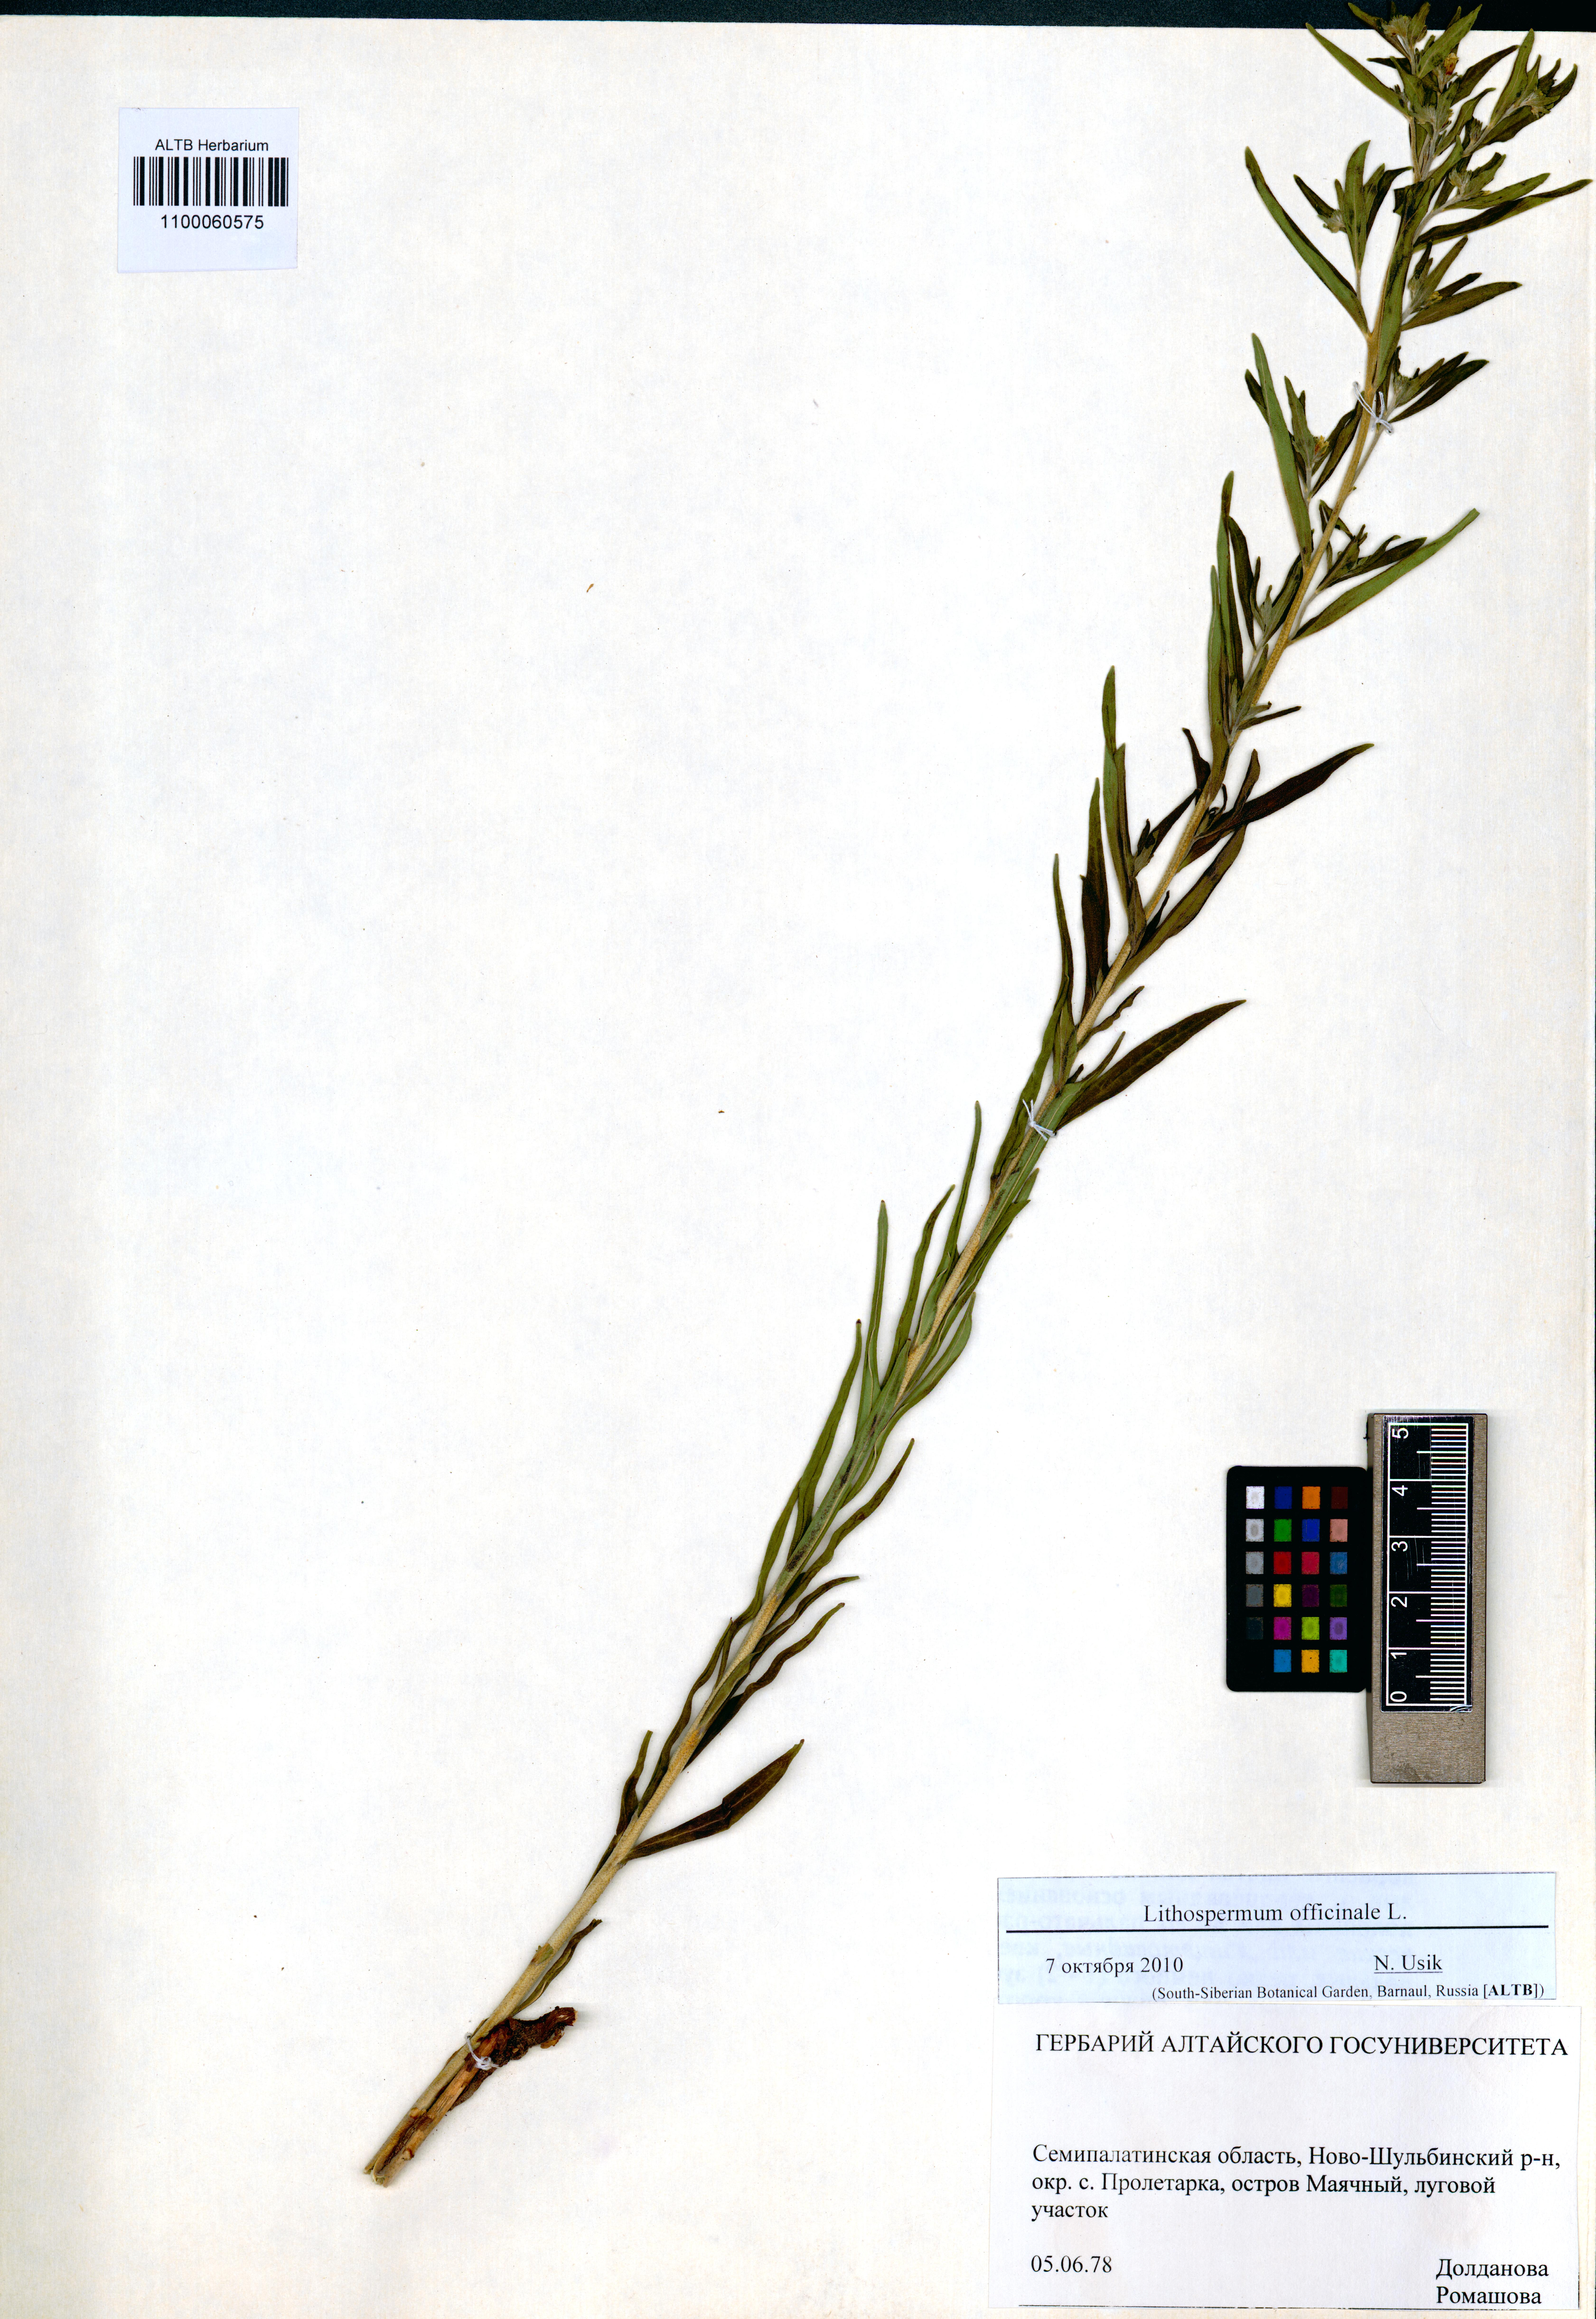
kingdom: Plantae
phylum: Tracheophyta
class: Magnoliopsida
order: Boraginales
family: Boraginaceae
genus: Lithospermum
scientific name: Lithospermum officinale
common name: Common gromwell
